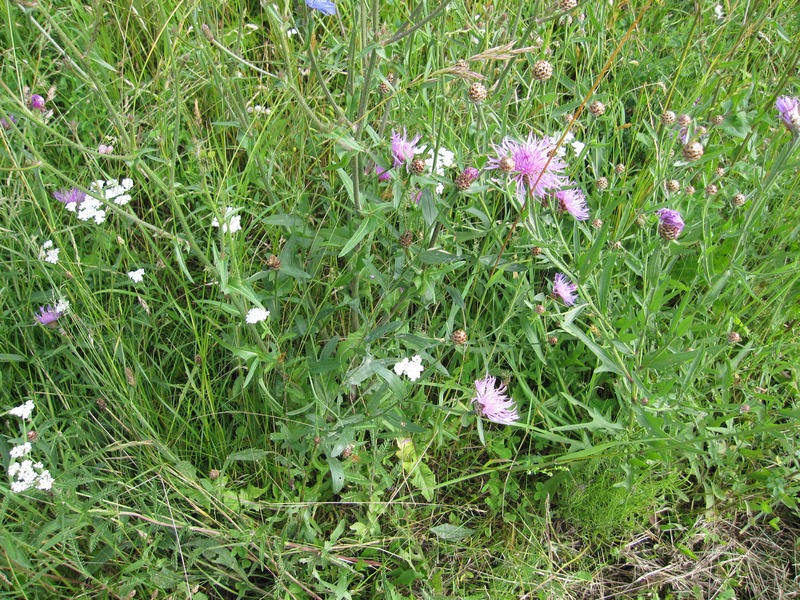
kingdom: Fungi
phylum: Ascomycota
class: Leotiomycetes
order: Helotiales
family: Erysiphaceae
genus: Golovinomyces
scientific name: Golovinomyces cichoracearum
